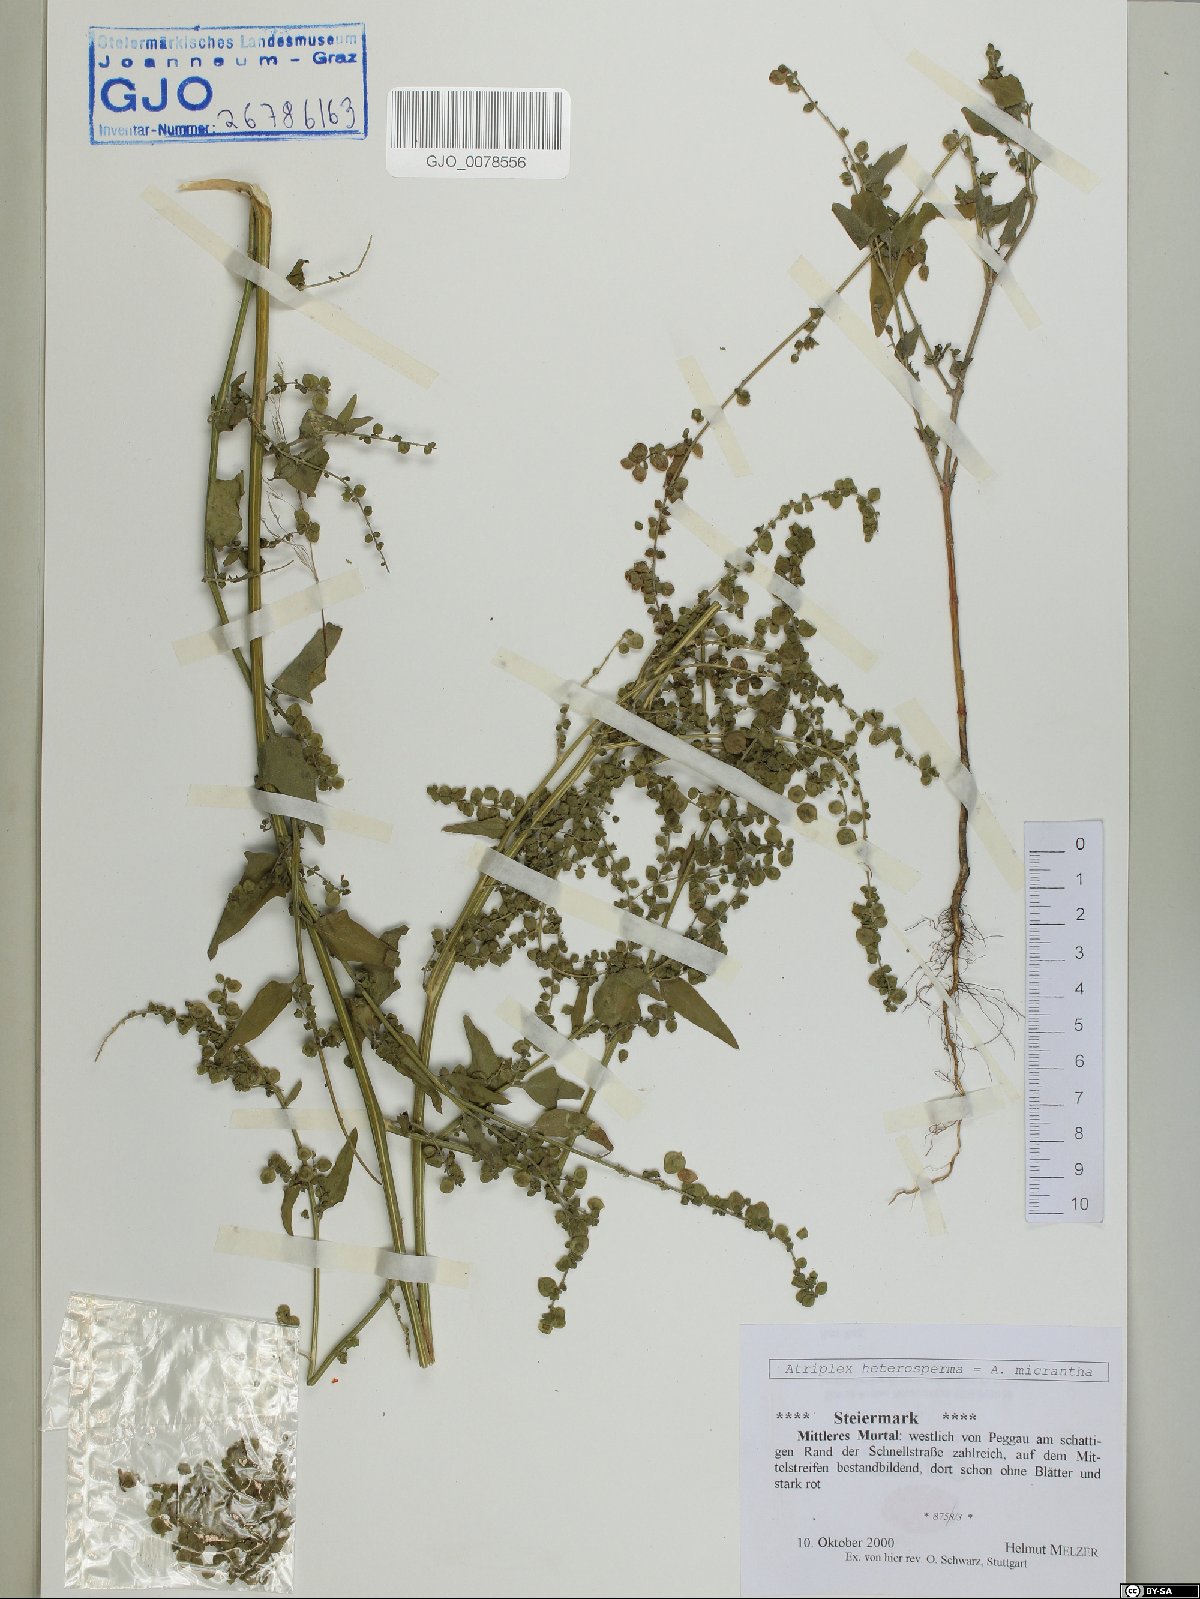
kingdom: Plantae
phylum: Tracheophyta
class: Magnoliopsida
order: Caryophyllales
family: Amaranthaceae
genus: Atriplex
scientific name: Atriplex micrantha
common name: Twoscale saltbush
